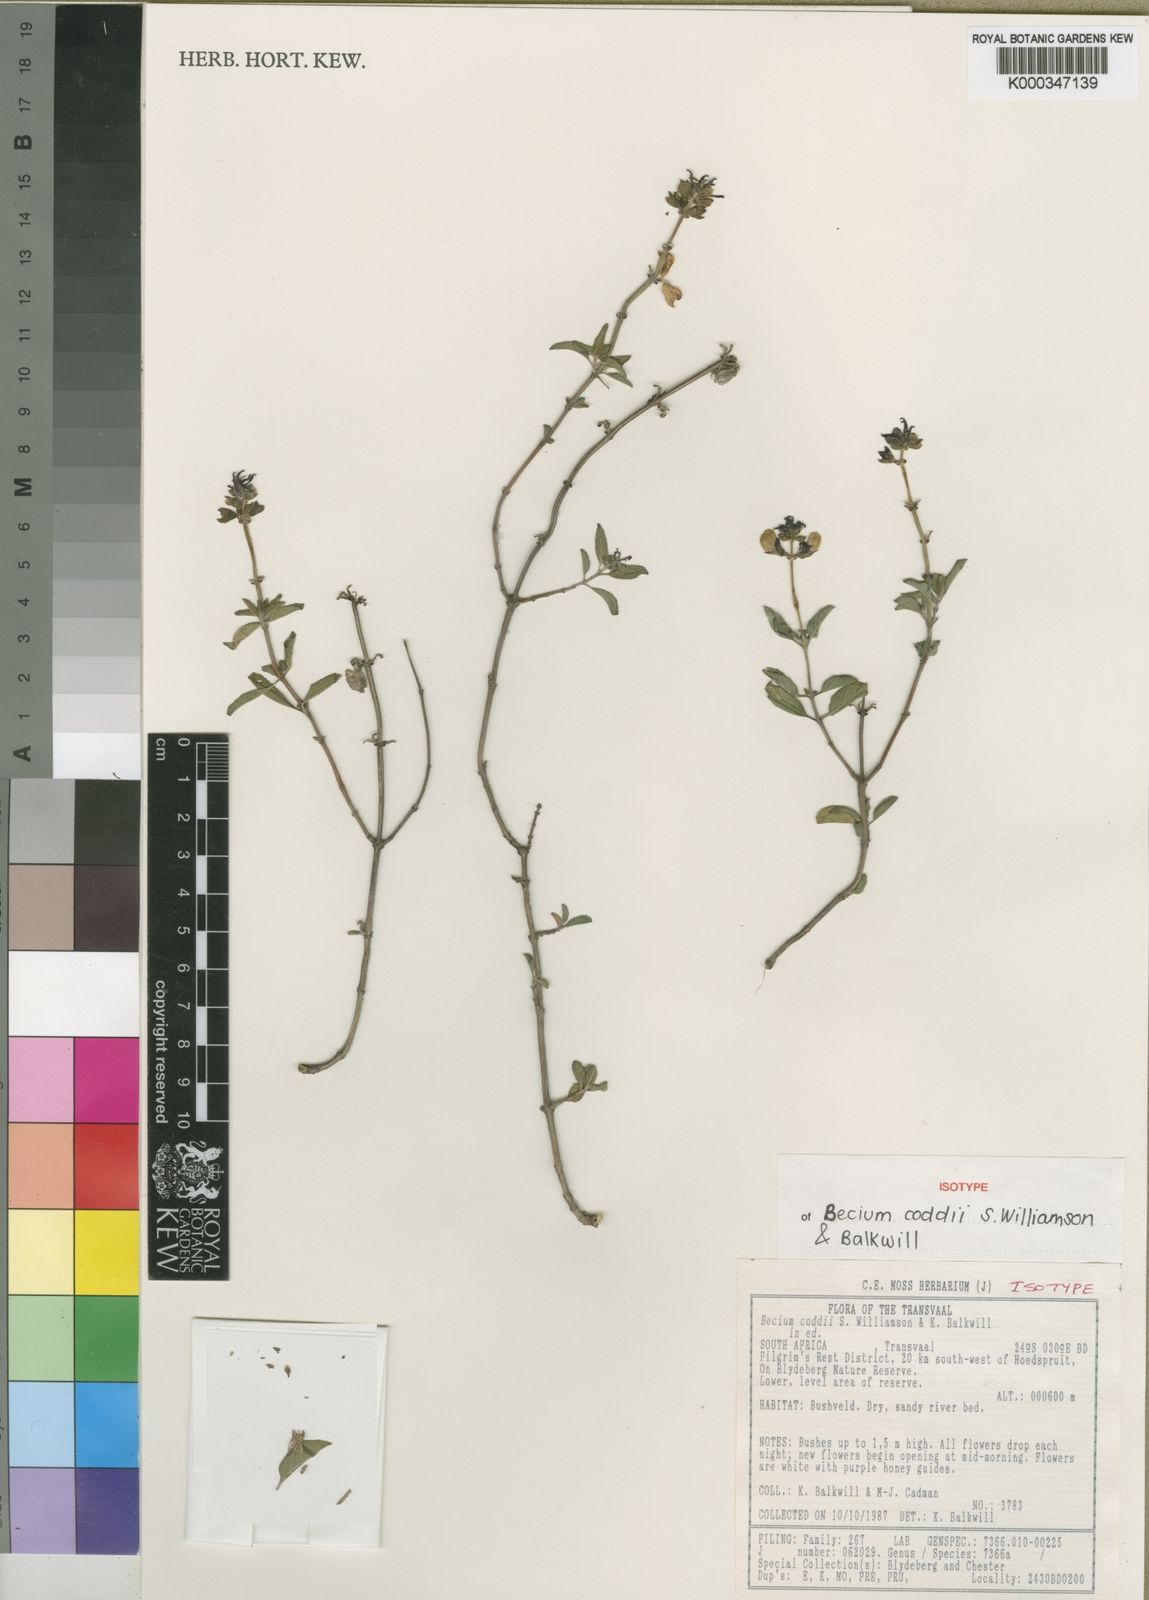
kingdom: Plantae
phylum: Tracheophyta
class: Magnoliopsida
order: Lamiales
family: Lamiaceae
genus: Ocimum
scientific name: Ocimum coddii
